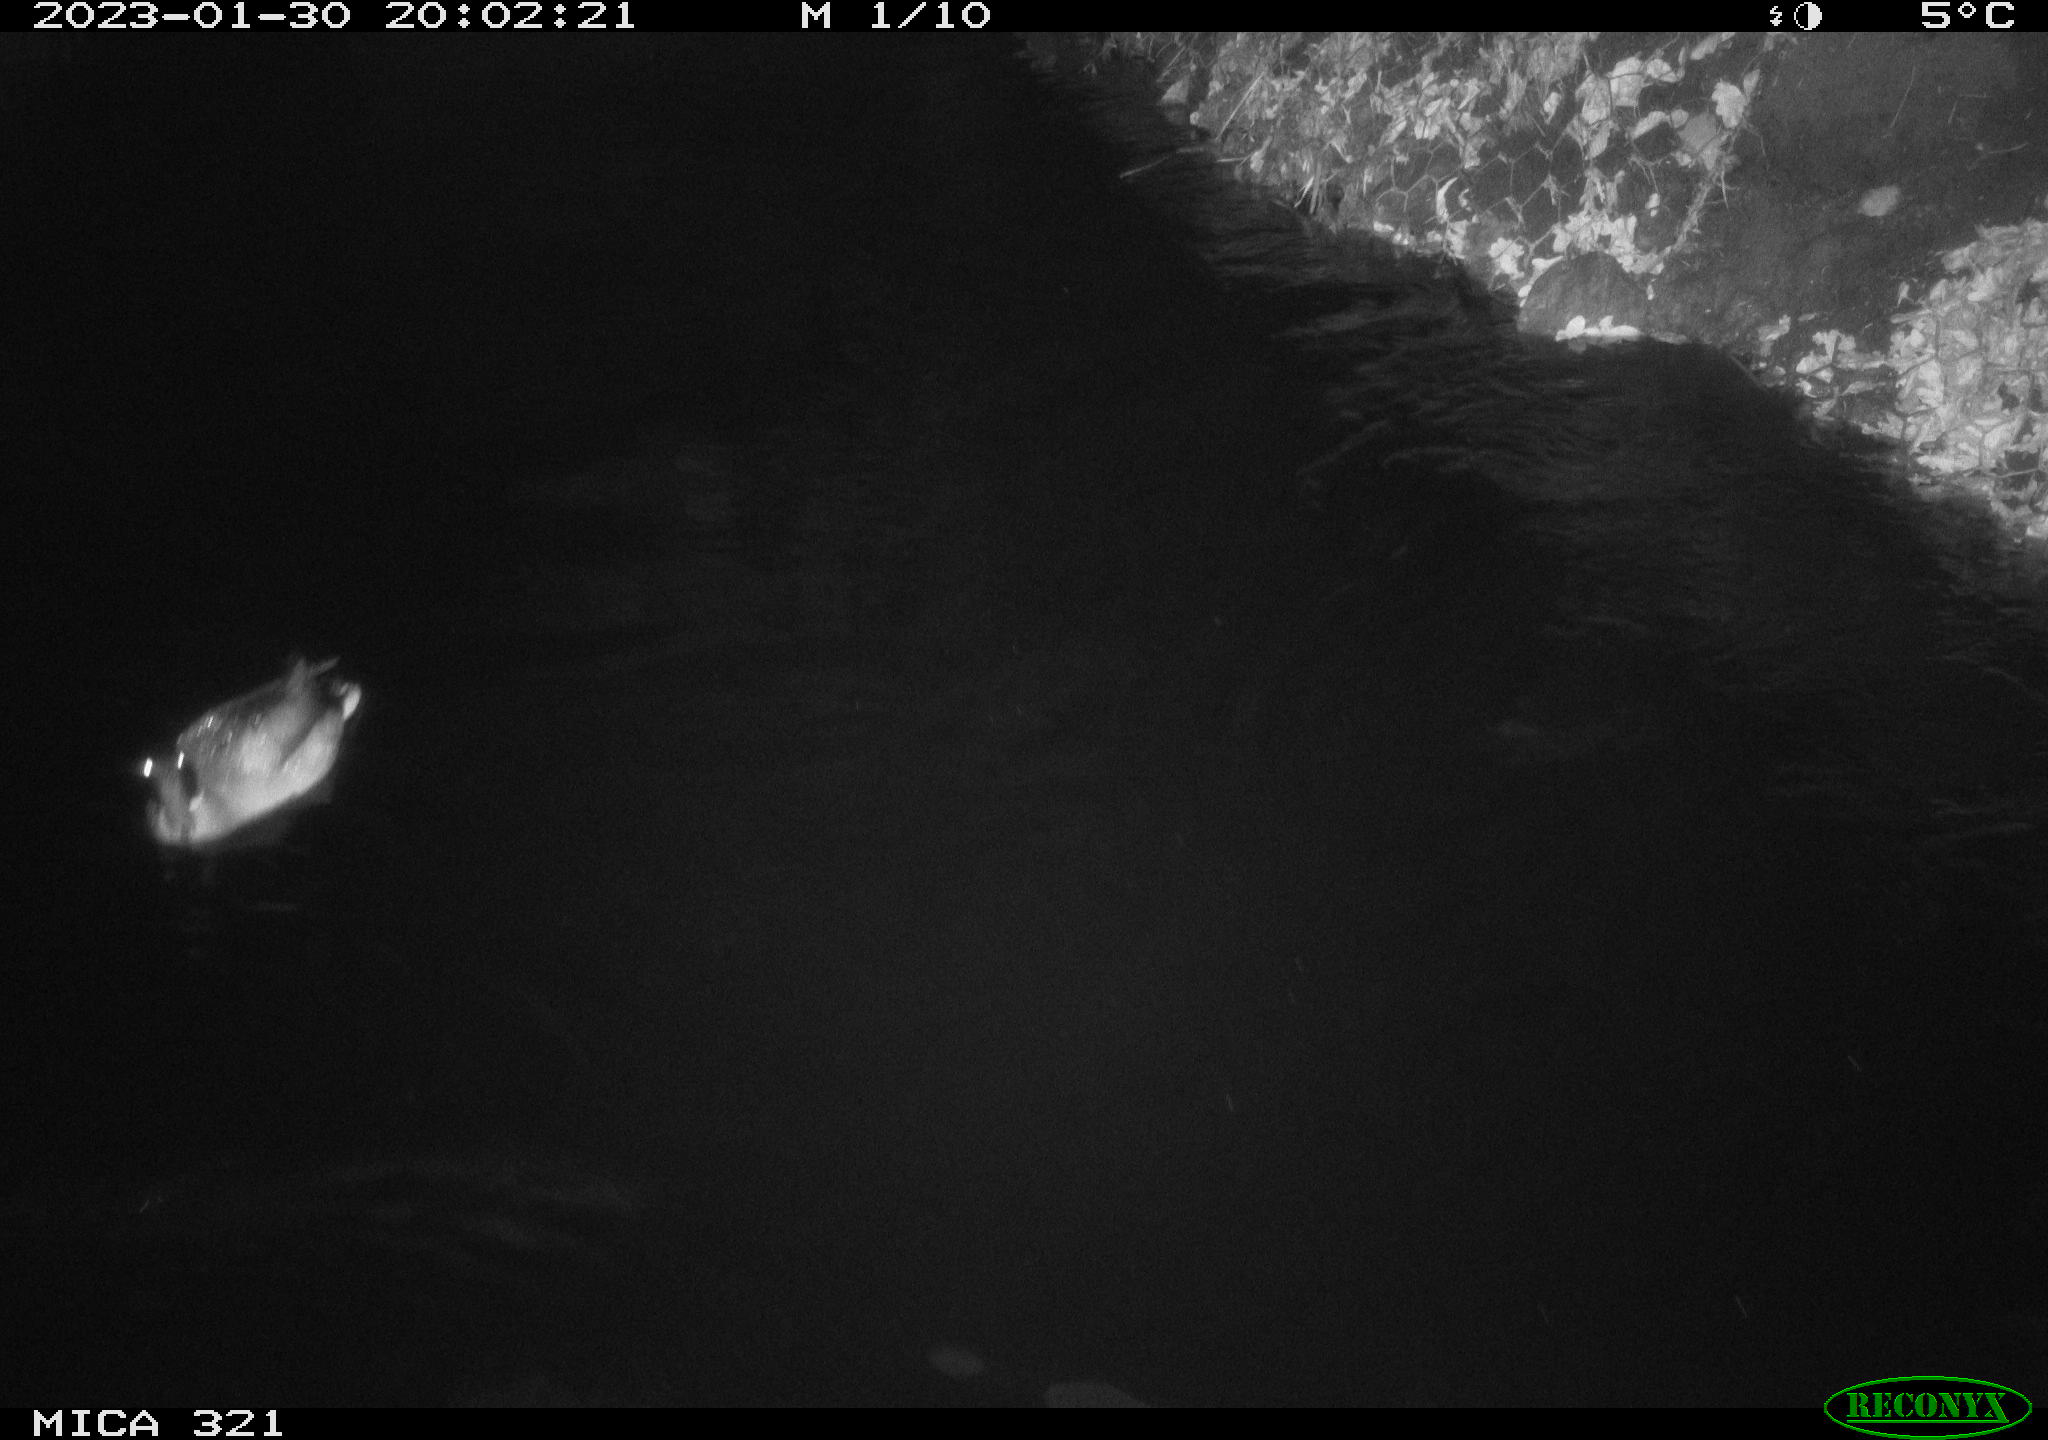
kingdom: Animalia
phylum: Chordata
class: Aves
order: Anseriformes
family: Anatidae
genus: Anas
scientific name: Anas
